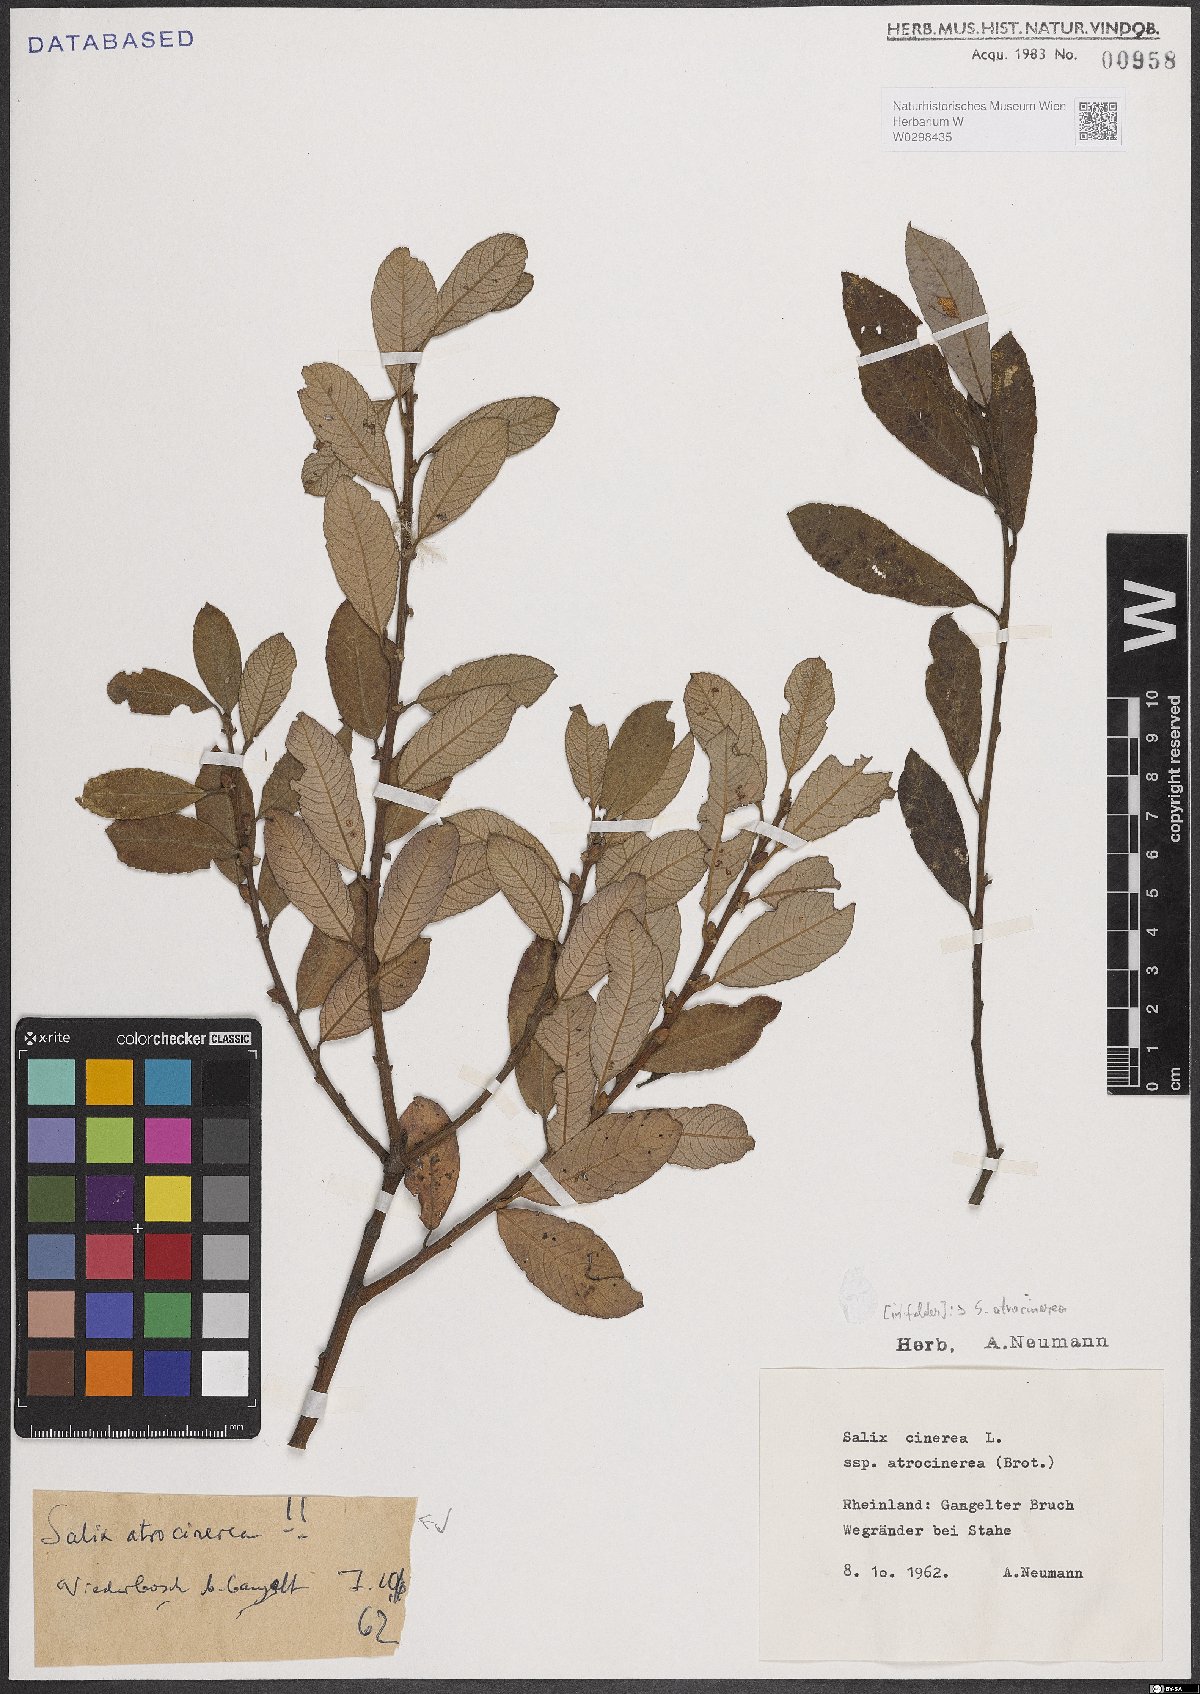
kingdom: Plantae
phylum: Tracheophyta
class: Magnoliopsida
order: Malpighiales
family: Salicaceae
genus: Salix
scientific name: Salix atrocinerea
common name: Rusty willow
